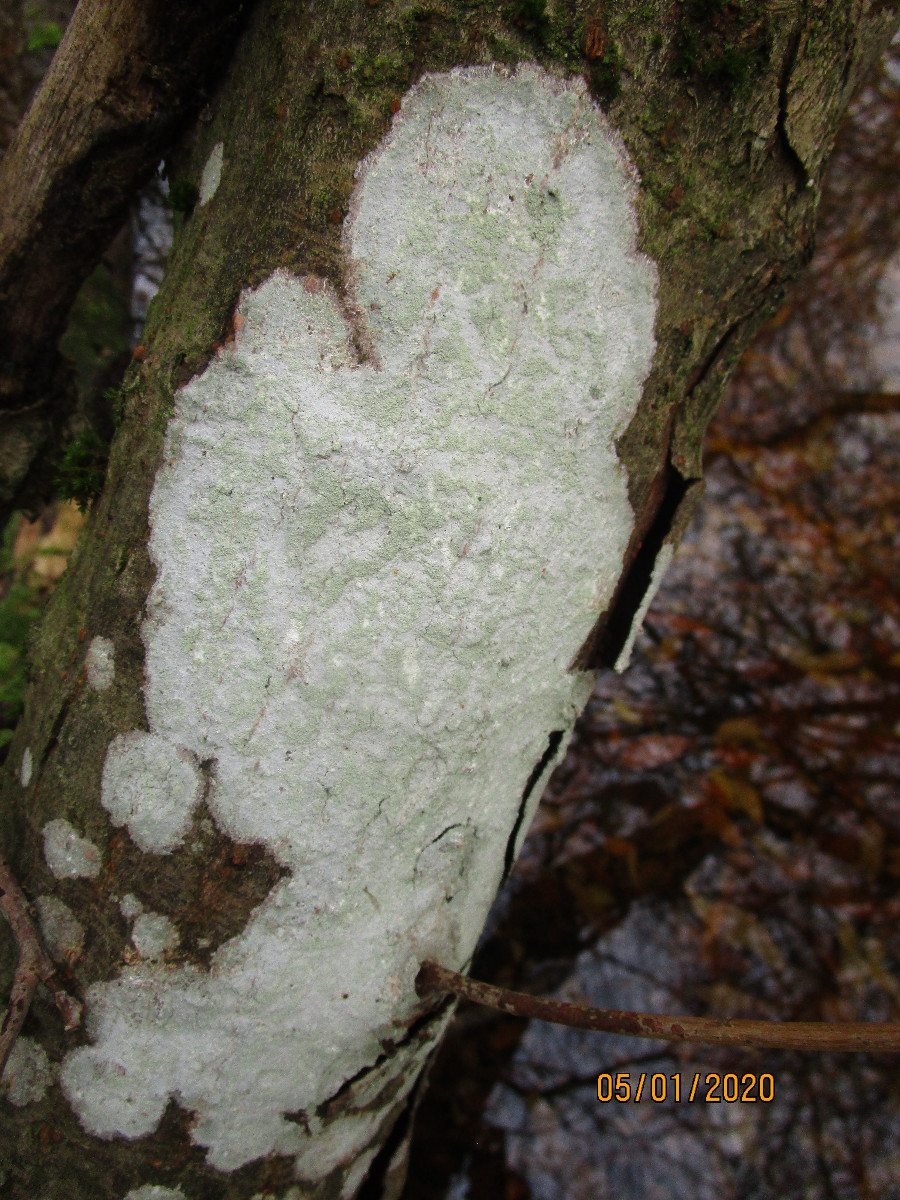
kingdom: Fungi
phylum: Ascomycota
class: Lecanoromycetes
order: Ostropales
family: Phlyctidaceae
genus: Phlyctis
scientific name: Phlyctis argena
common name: almindelig sølvlav
